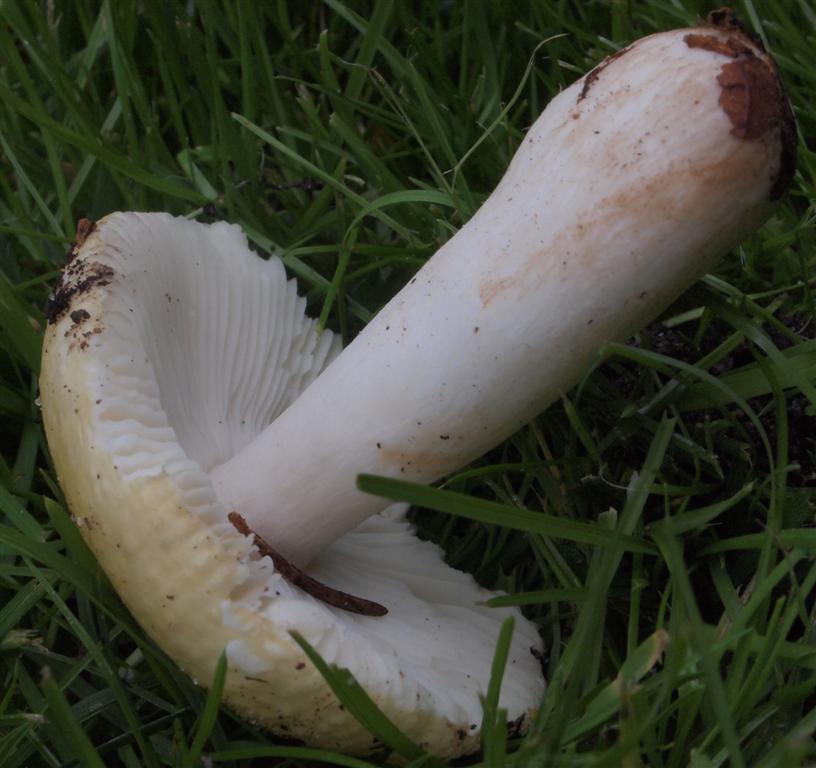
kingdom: Fungi
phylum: Basidiomycota
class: Agaricomycetes
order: Russulales
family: Russulaceae
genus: Russula
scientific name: Russula solaris
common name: sol-skørhat
